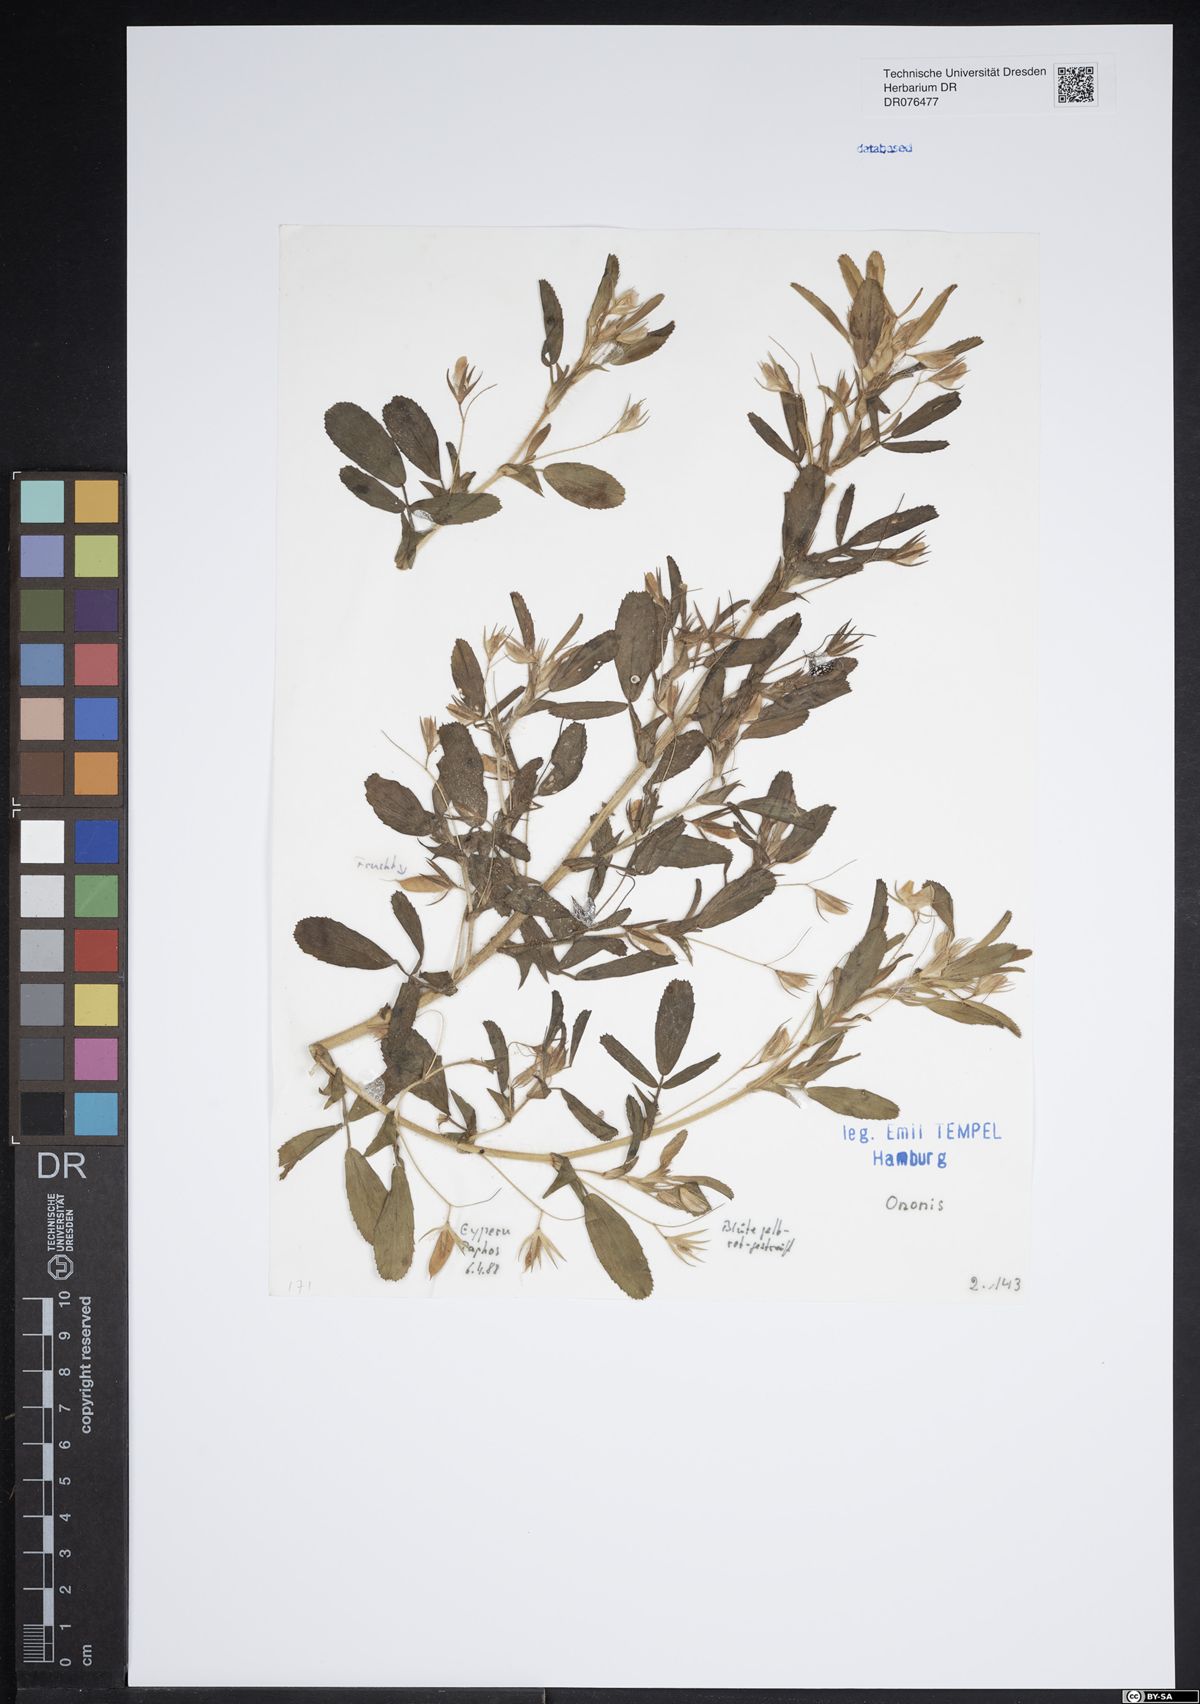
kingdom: Plantae
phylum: Tracheophyta
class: Magnoliopsida
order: Fabales
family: Fabaceae
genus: Ononis
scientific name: Ononis
